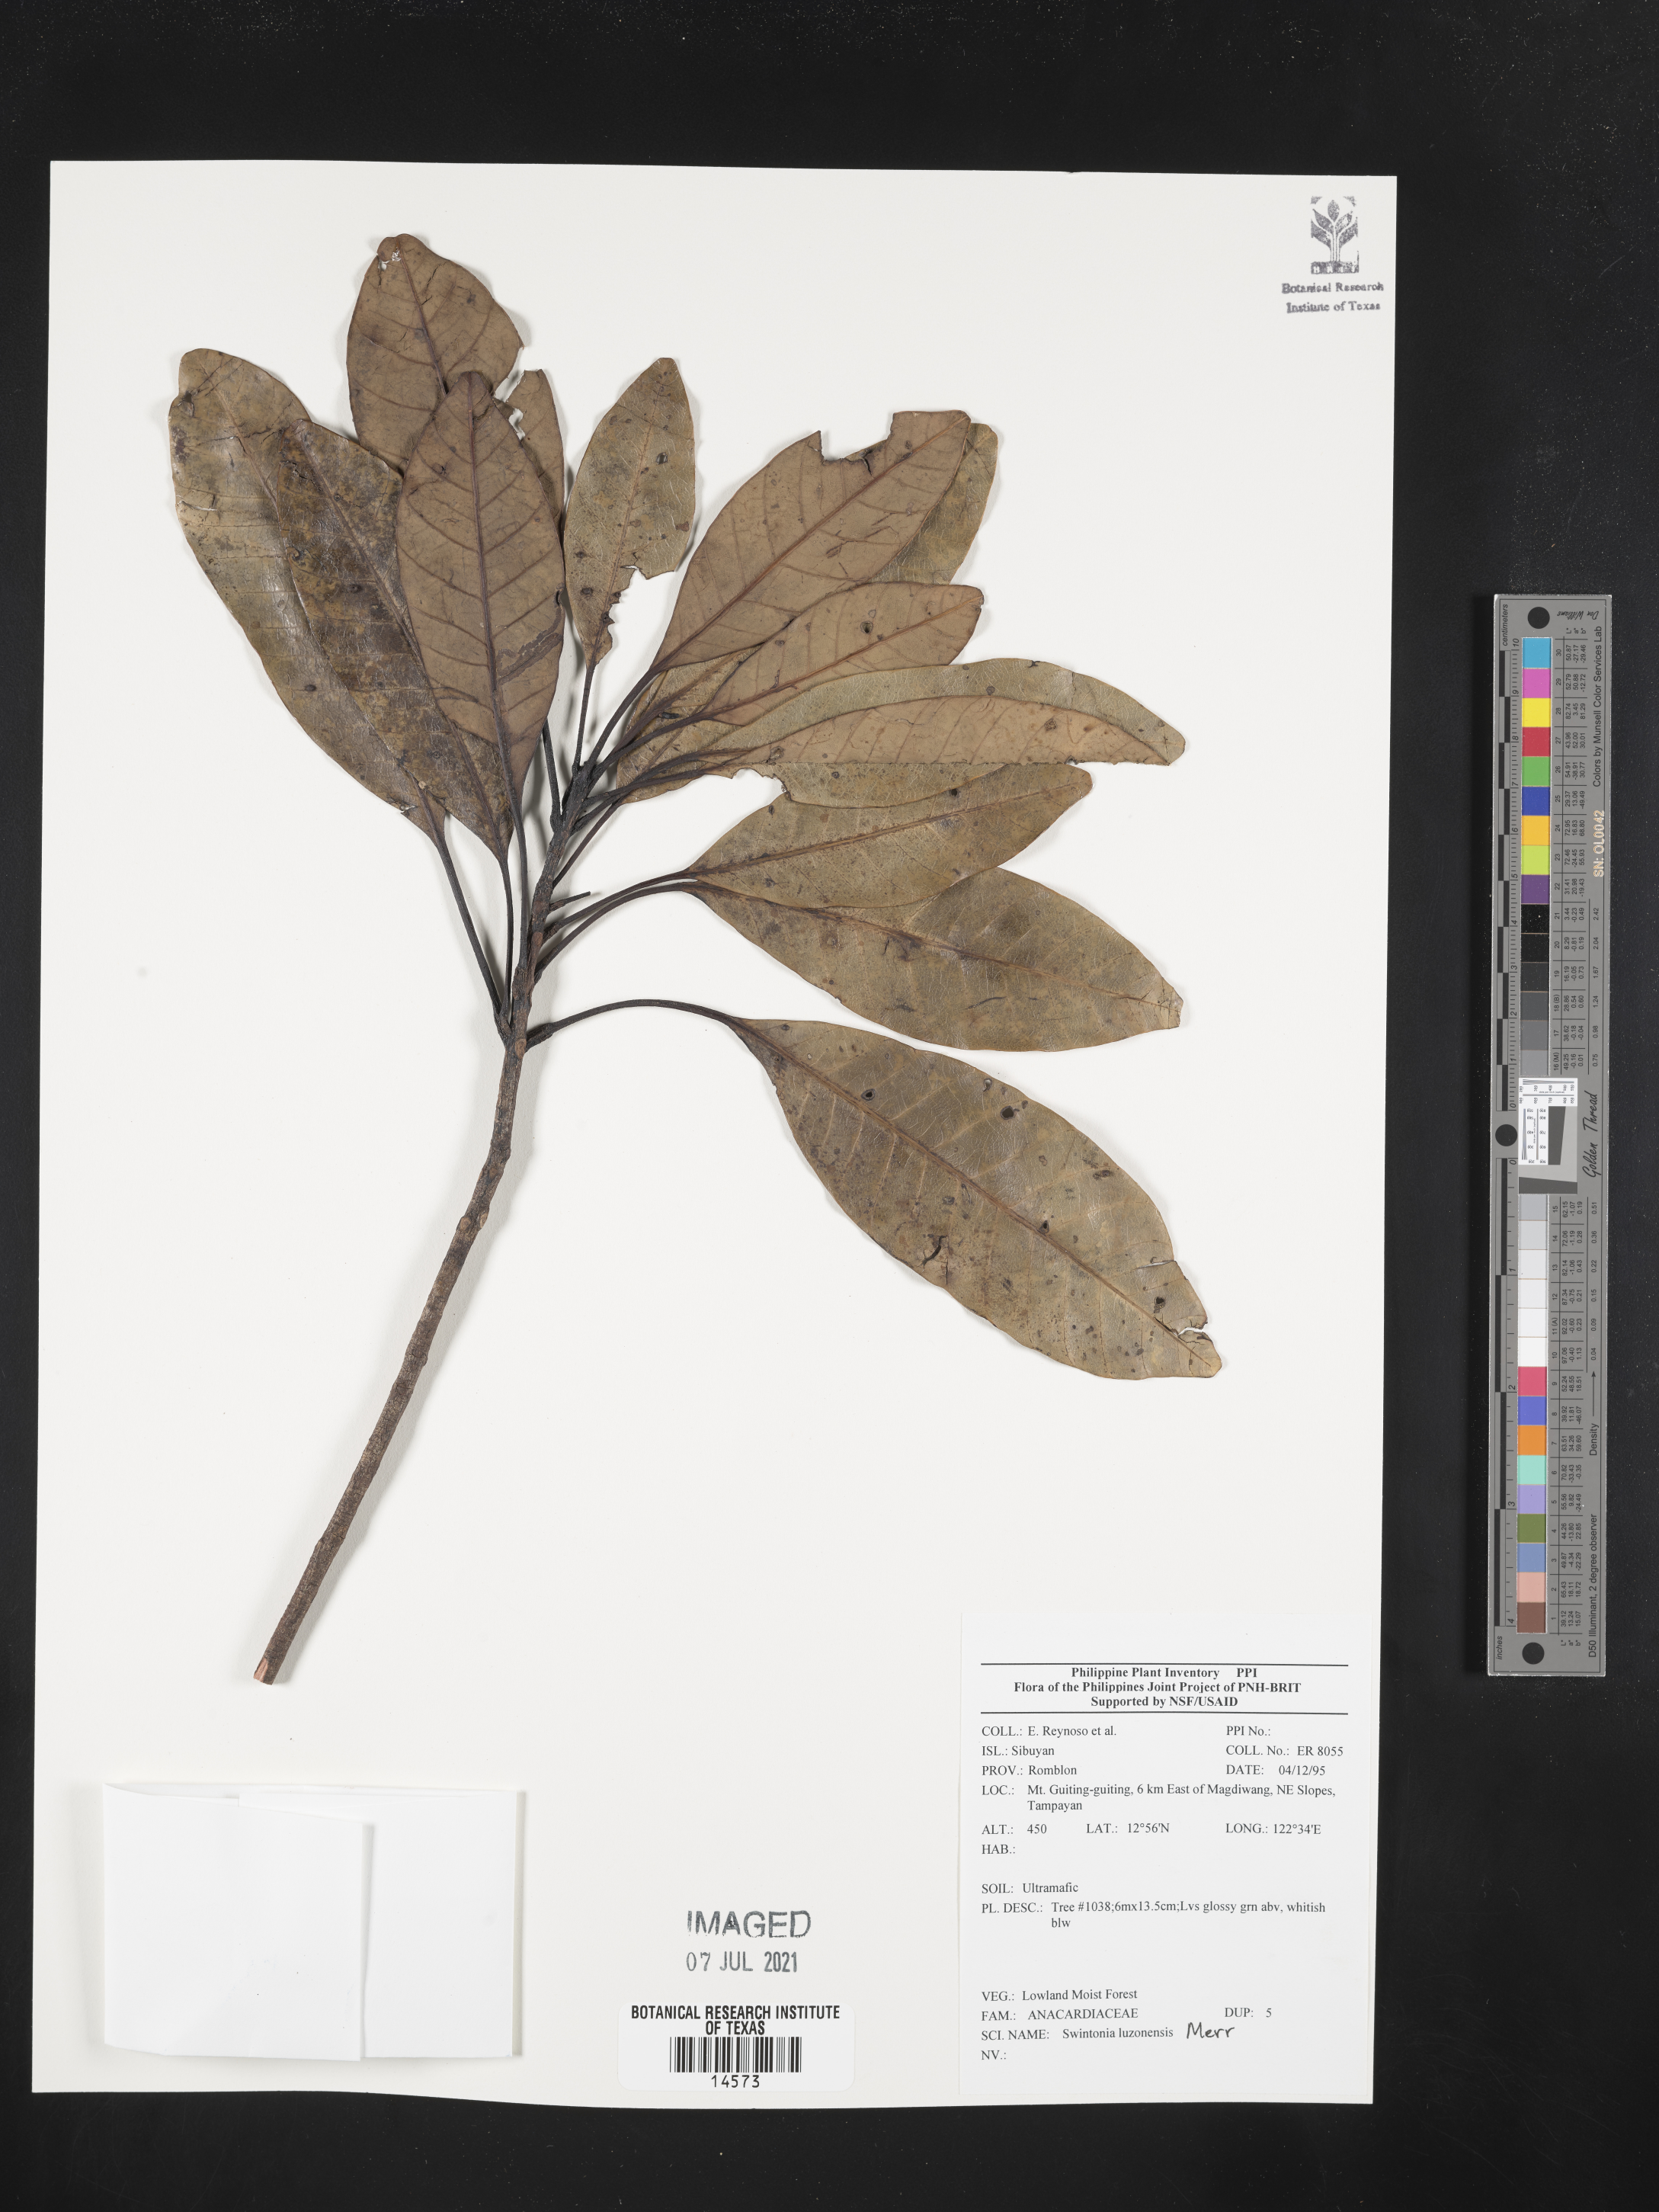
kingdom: Plantae
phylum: Tracheophyta
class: Magnoliopsida
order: Sapindales
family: Anacardiaceae
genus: Swintonia
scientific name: Swintonia acuta
